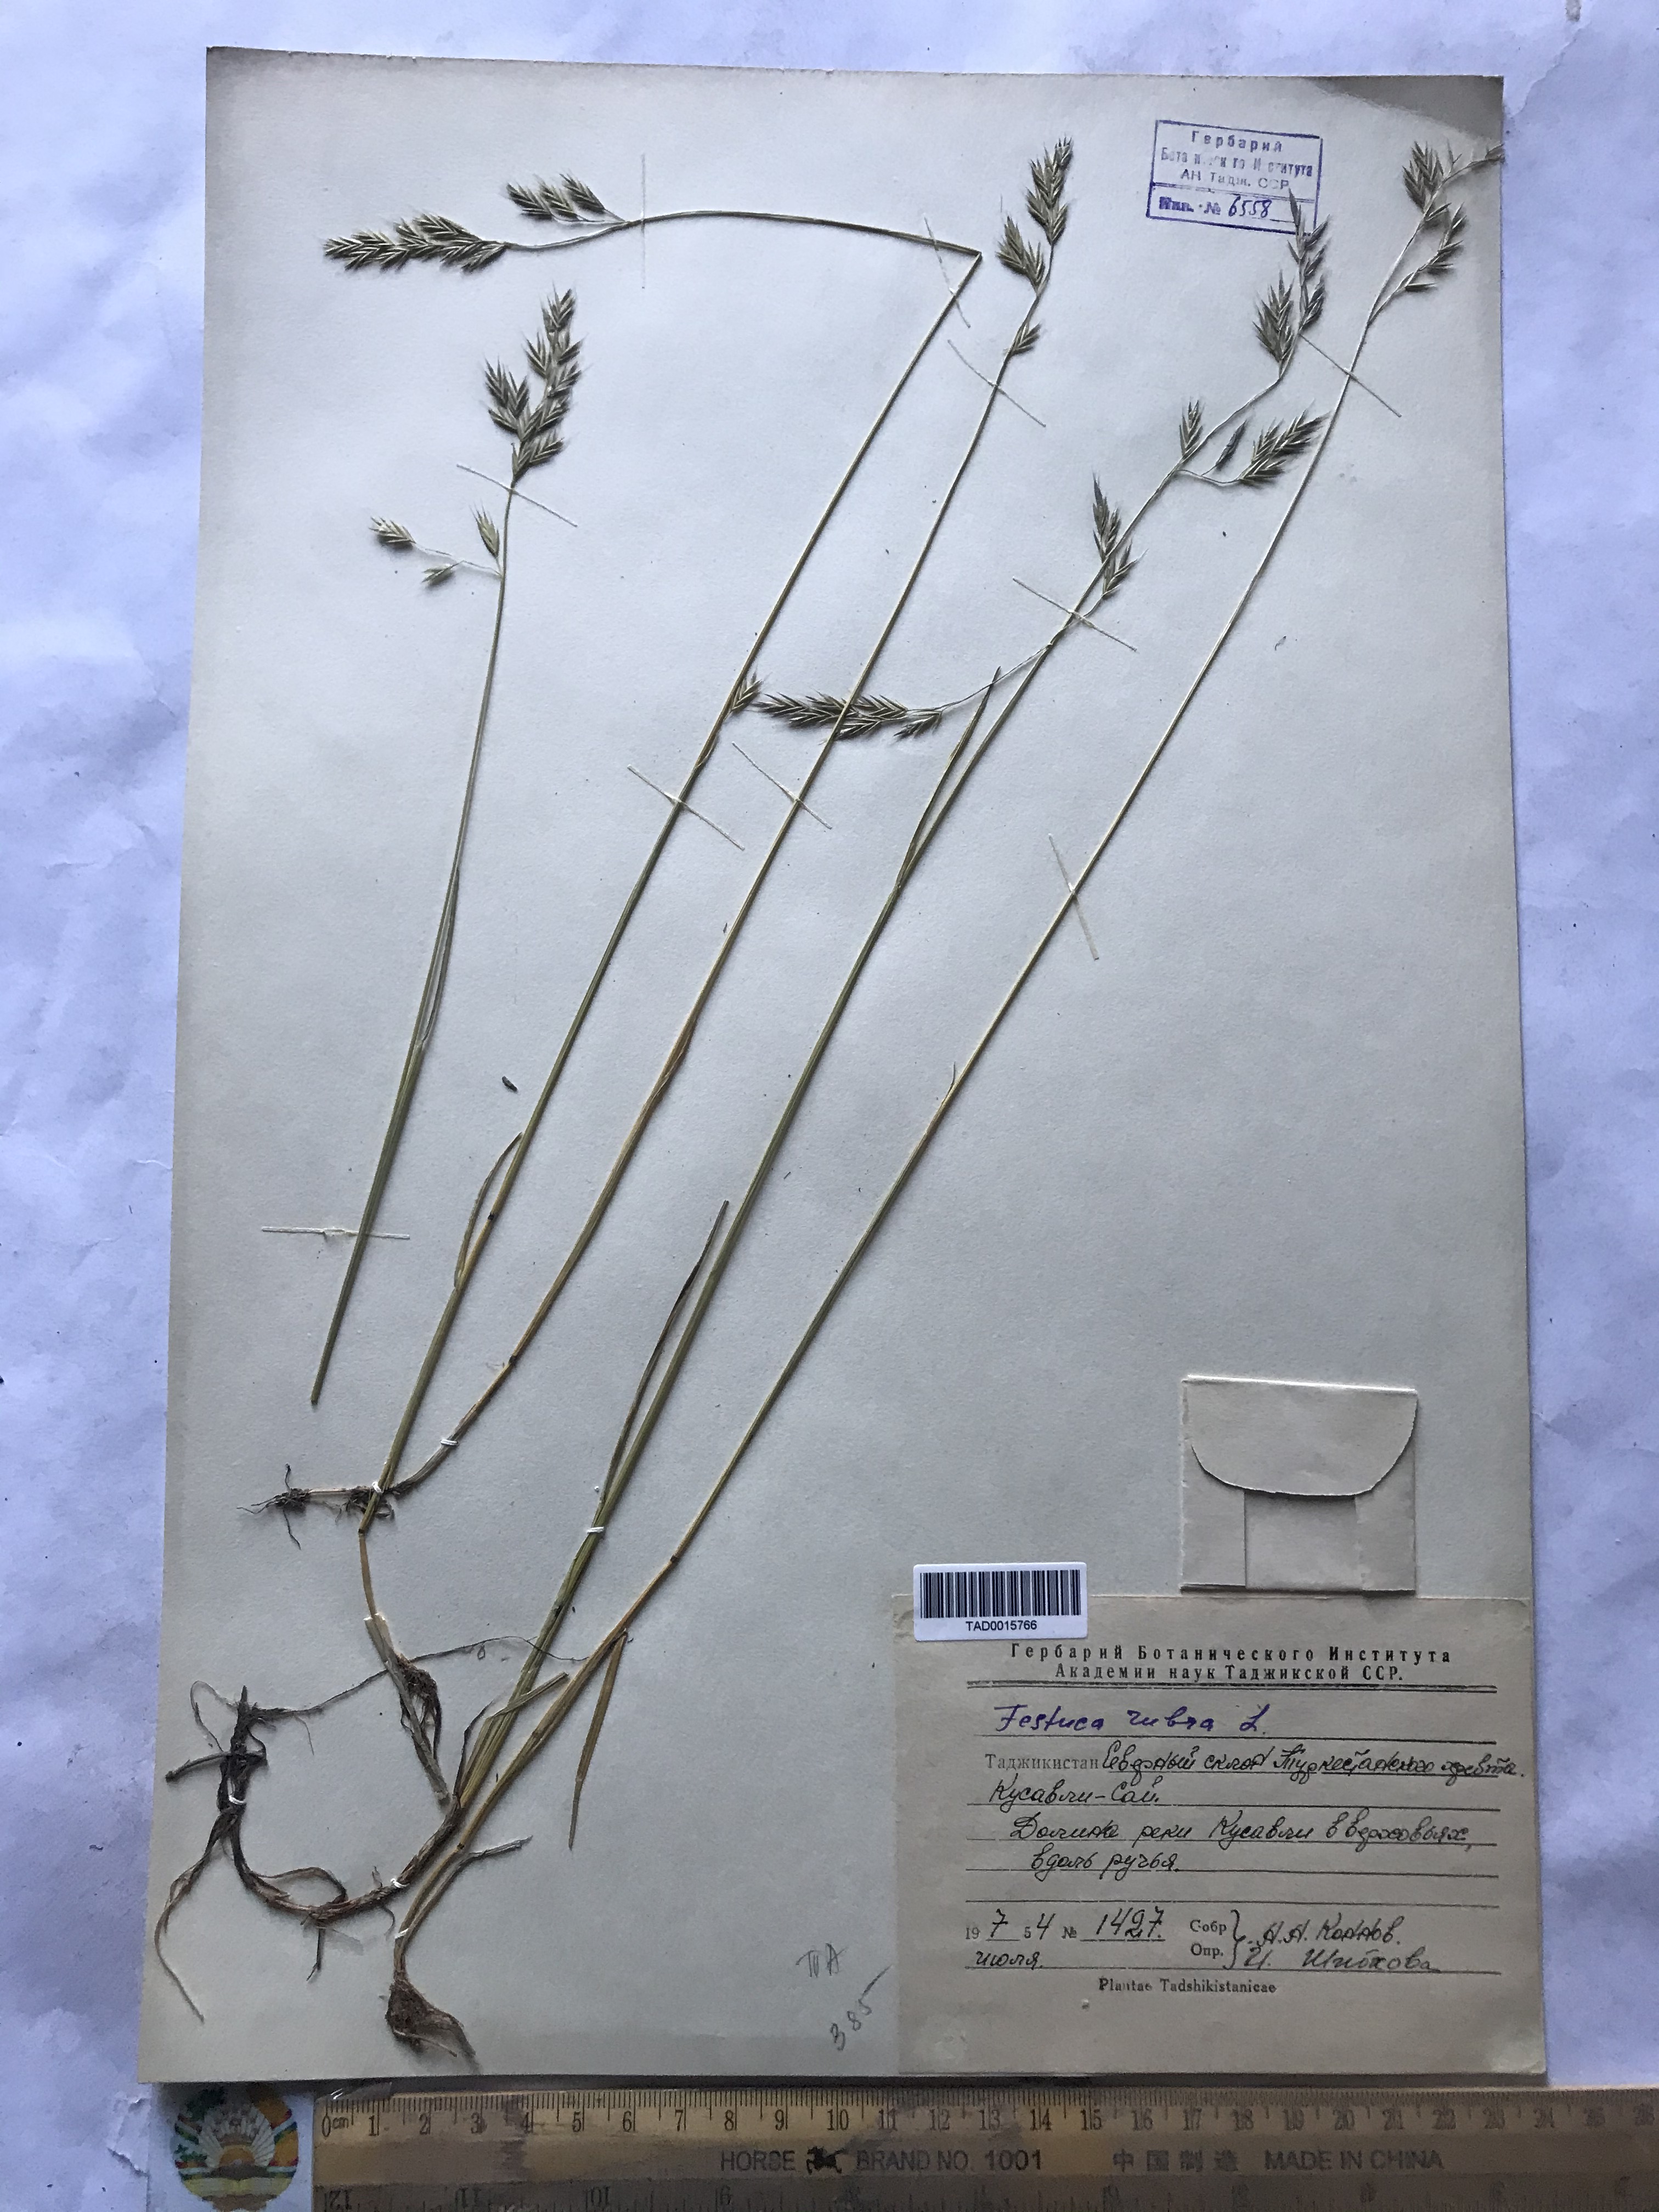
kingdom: Plantae
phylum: Tracheophyta
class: Liliopsida
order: Poales
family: Poaceae
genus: Festuca
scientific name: Festuca rubra
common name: Red fescue
